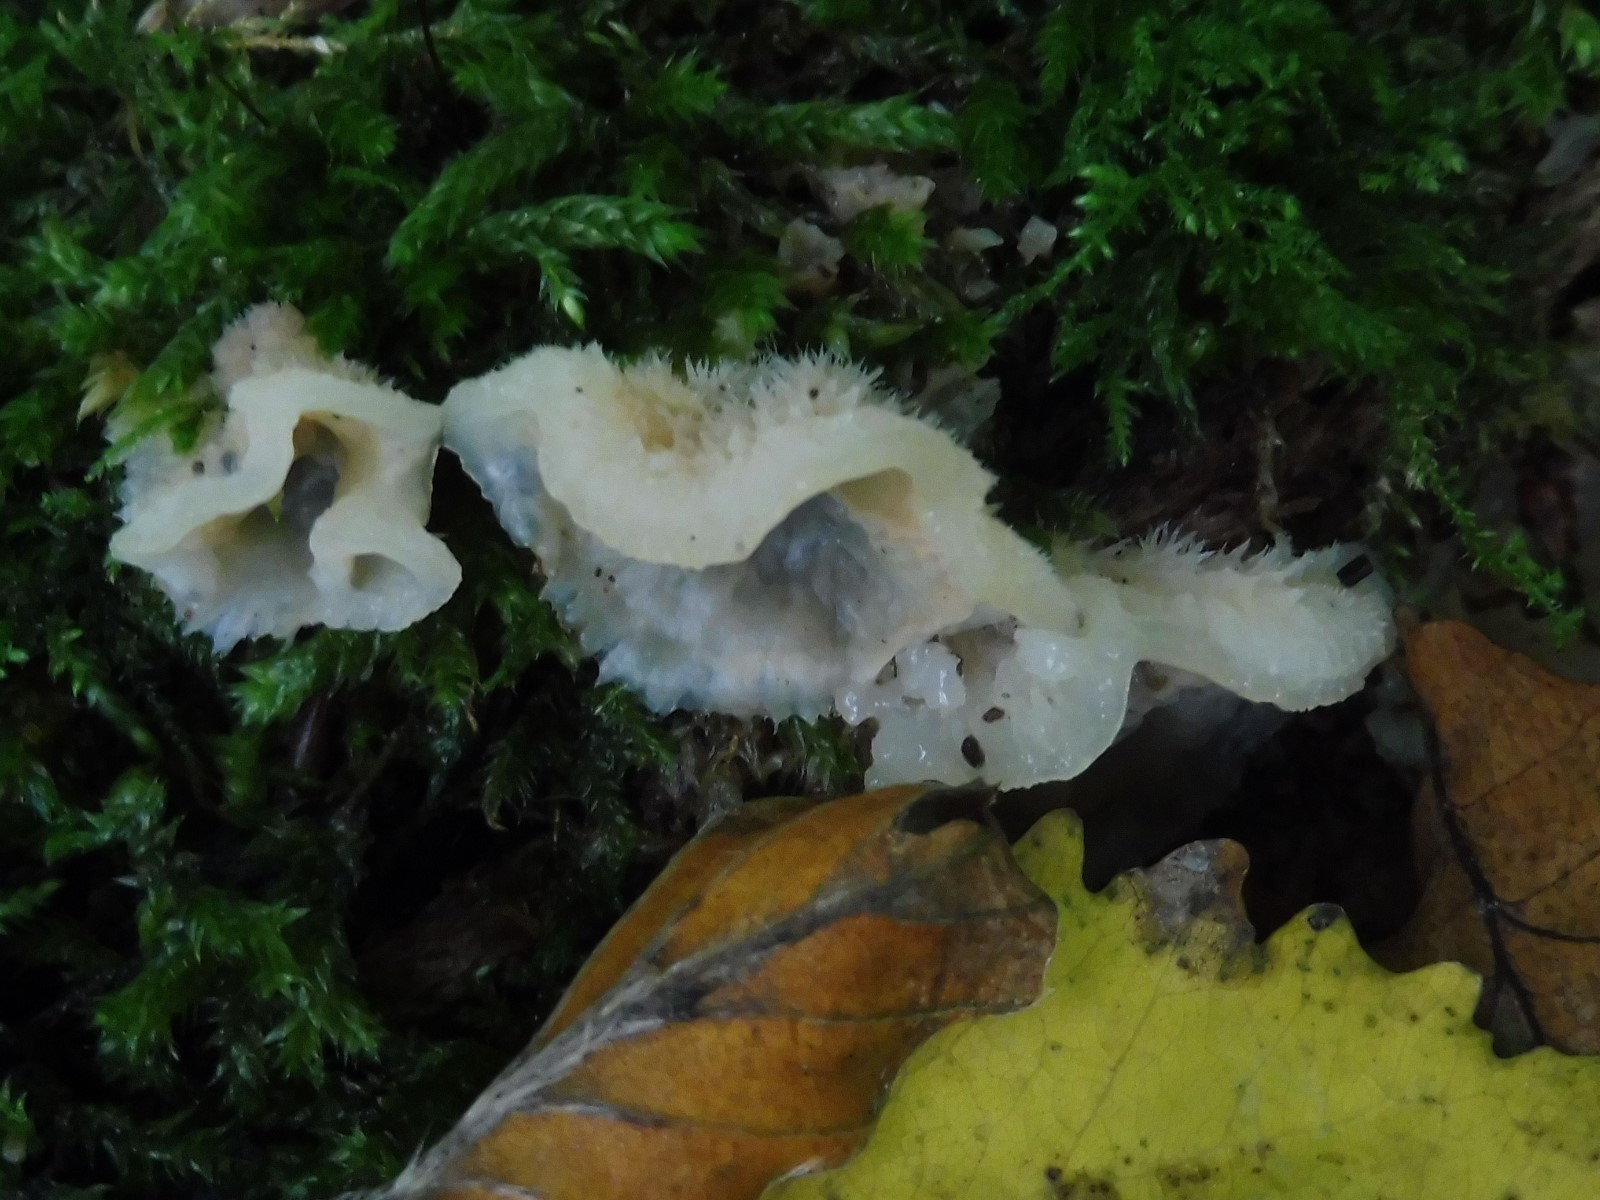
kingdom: Fungi
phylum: Basidiomycota
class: Agaricomycetes
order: Polyporales
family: Meruliaceae
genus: Phlebia
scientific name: Phlebia tremellosa
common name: bævrende åresvamp
